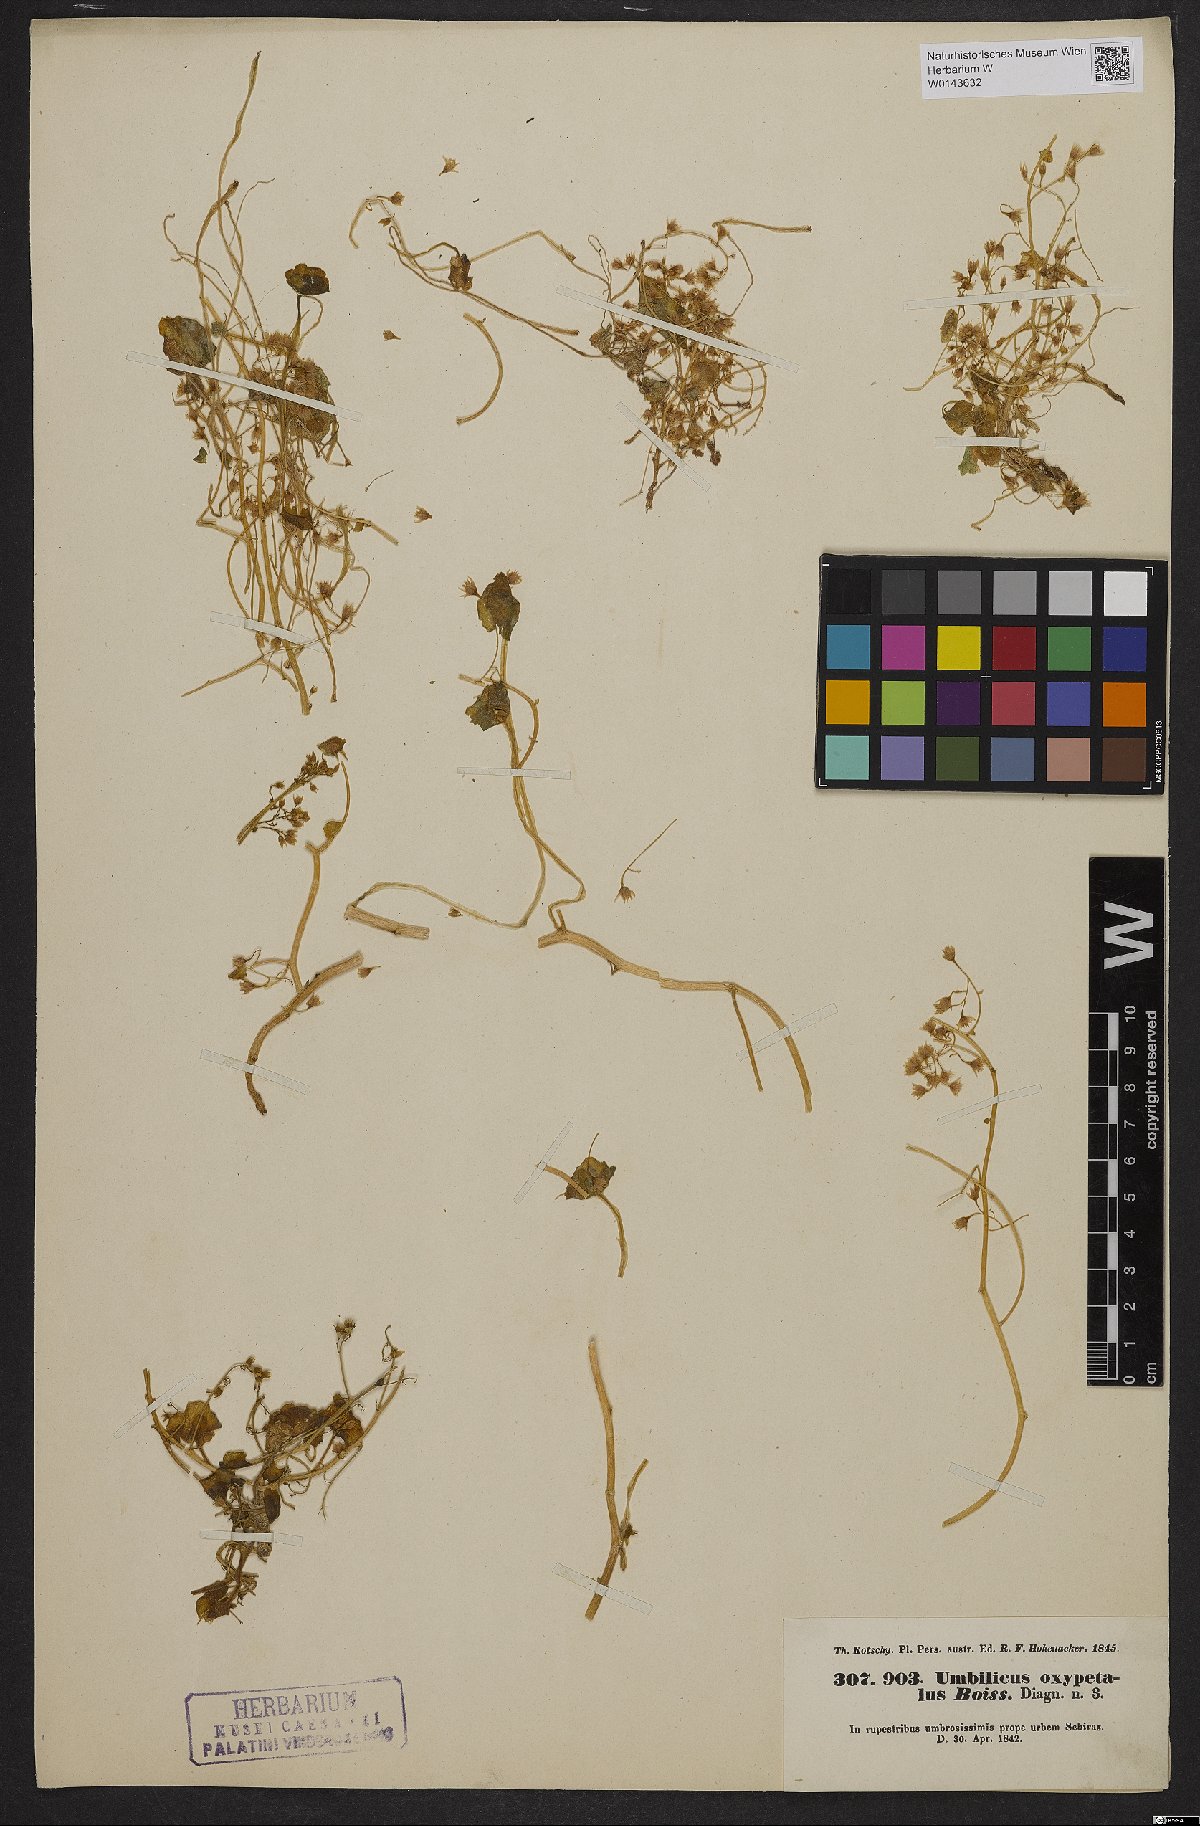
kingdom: Plantae
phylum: Tracheophyta
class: Magnoliopsida
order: Saxifragales
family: Crassulaceae
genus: Umbilicus
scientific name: Umbilicus tropaeolifolius
